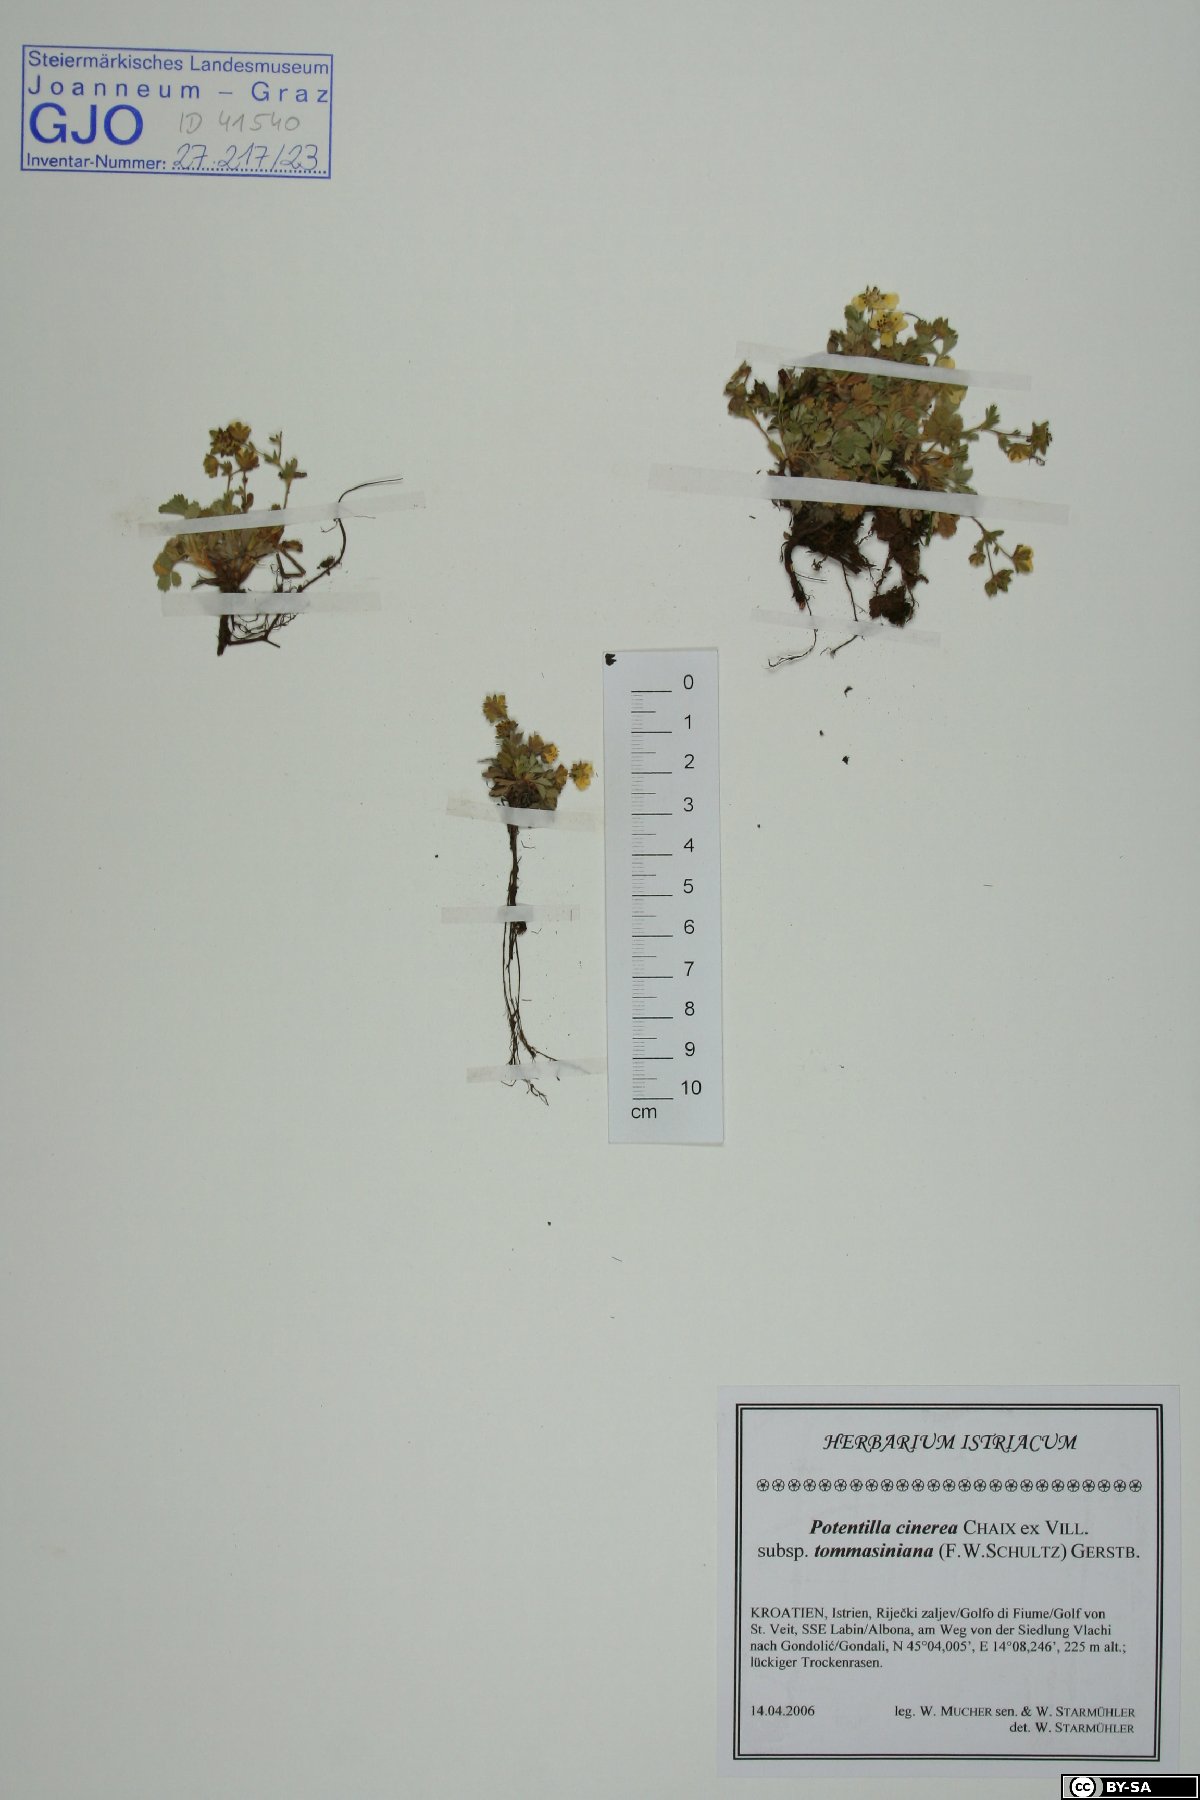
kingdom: Plantae
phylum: Tracheophyta
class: Magnoliopsida
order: Rosales
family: Rosaceae
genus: Potentilla
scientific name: Potentilla cinerea
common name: Ashy cinquefoil
